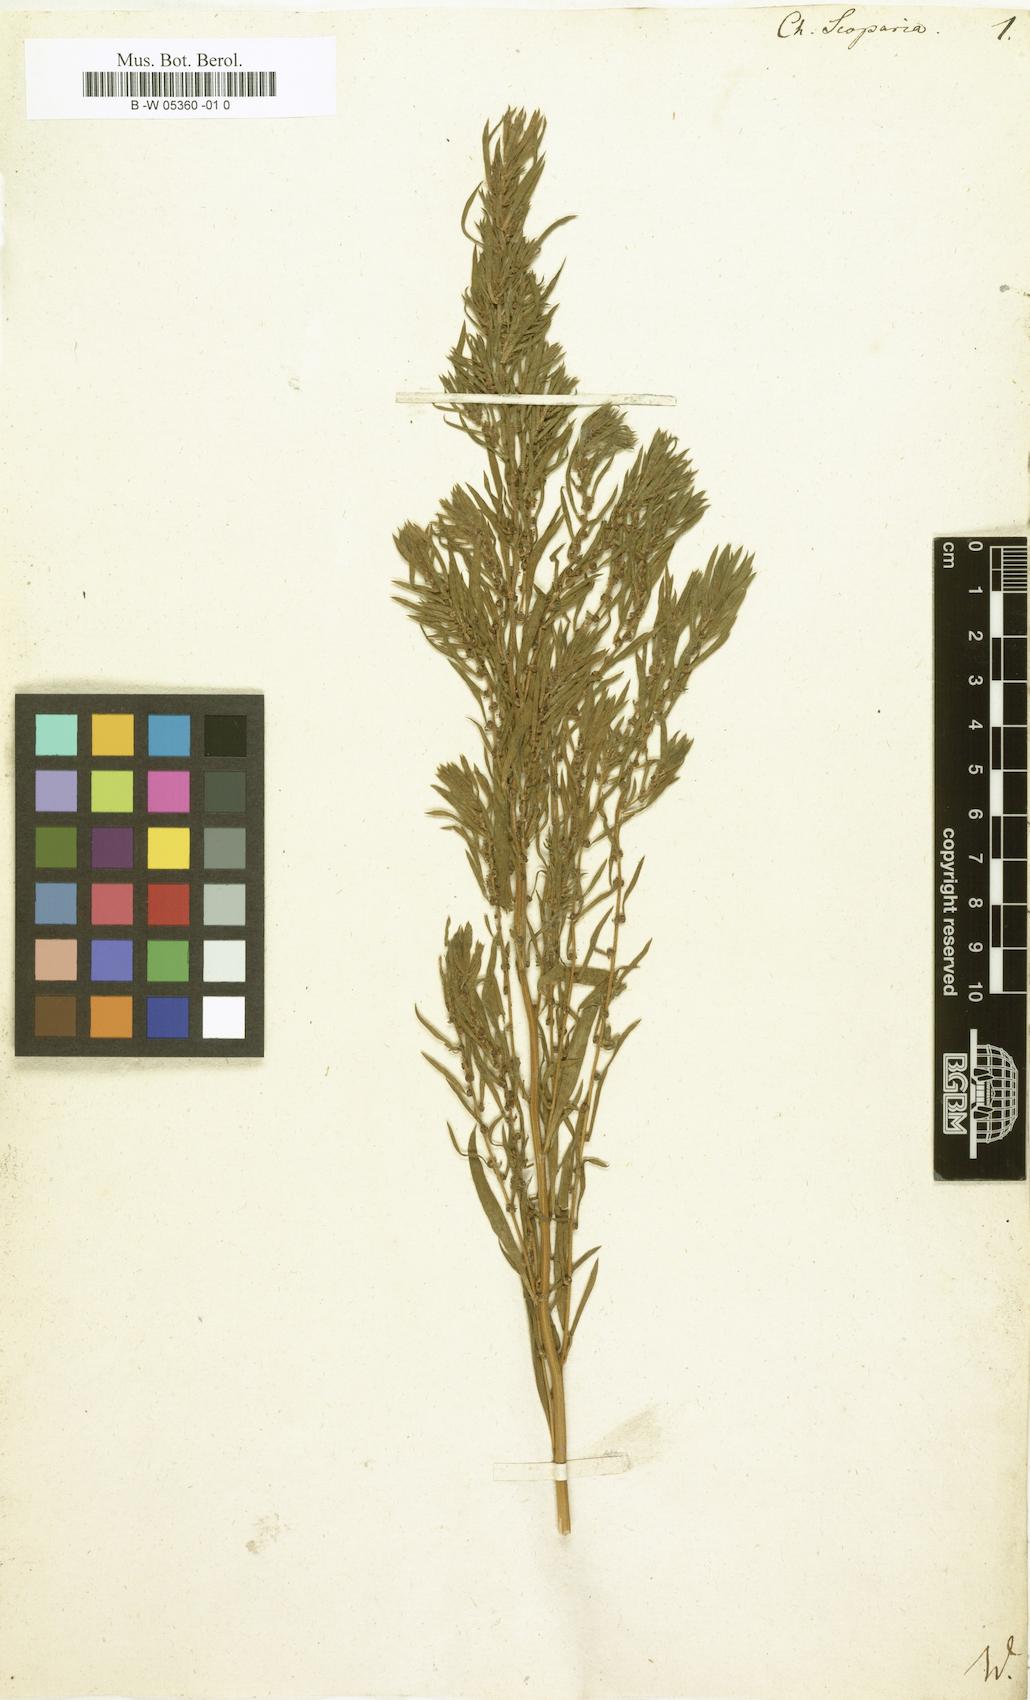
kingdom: Plantae
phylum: Tracheophyta
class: Magnoliopsida
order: Caryophyllales
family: Amaranthaceae
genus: Bassia
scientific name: Bassia scoparia
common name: Belvedere
